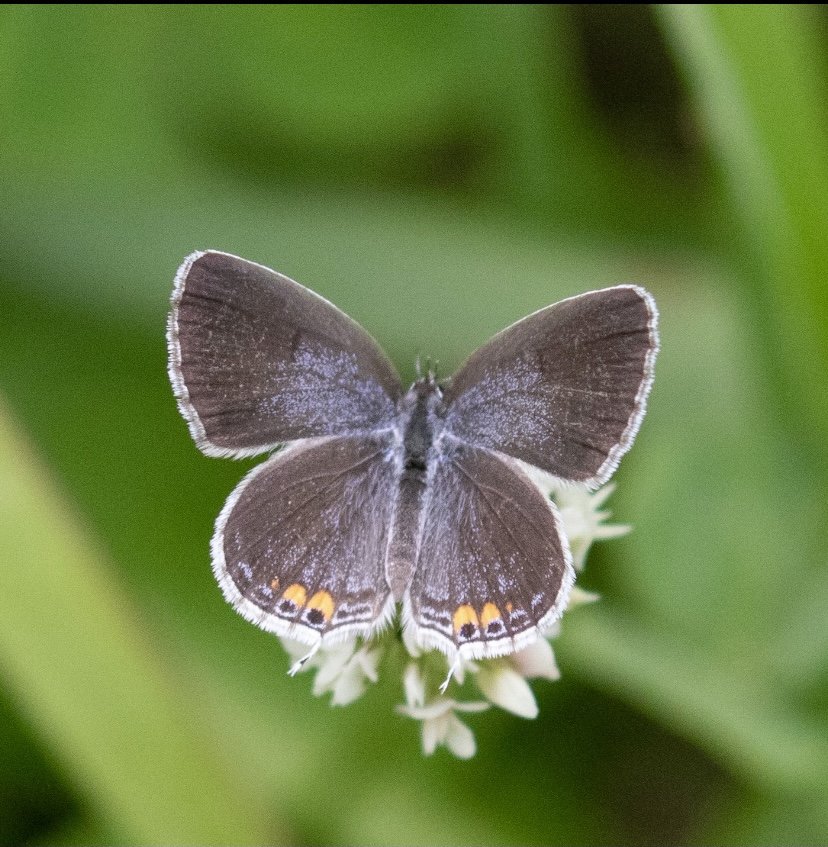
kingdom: Animalia
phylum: Arthropoda
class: Insecta
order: Lepidoptera
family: Lycaenidae
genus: Elkalyce
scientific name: Elkalyce comyntas
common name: Eastern Tailed-Blue
